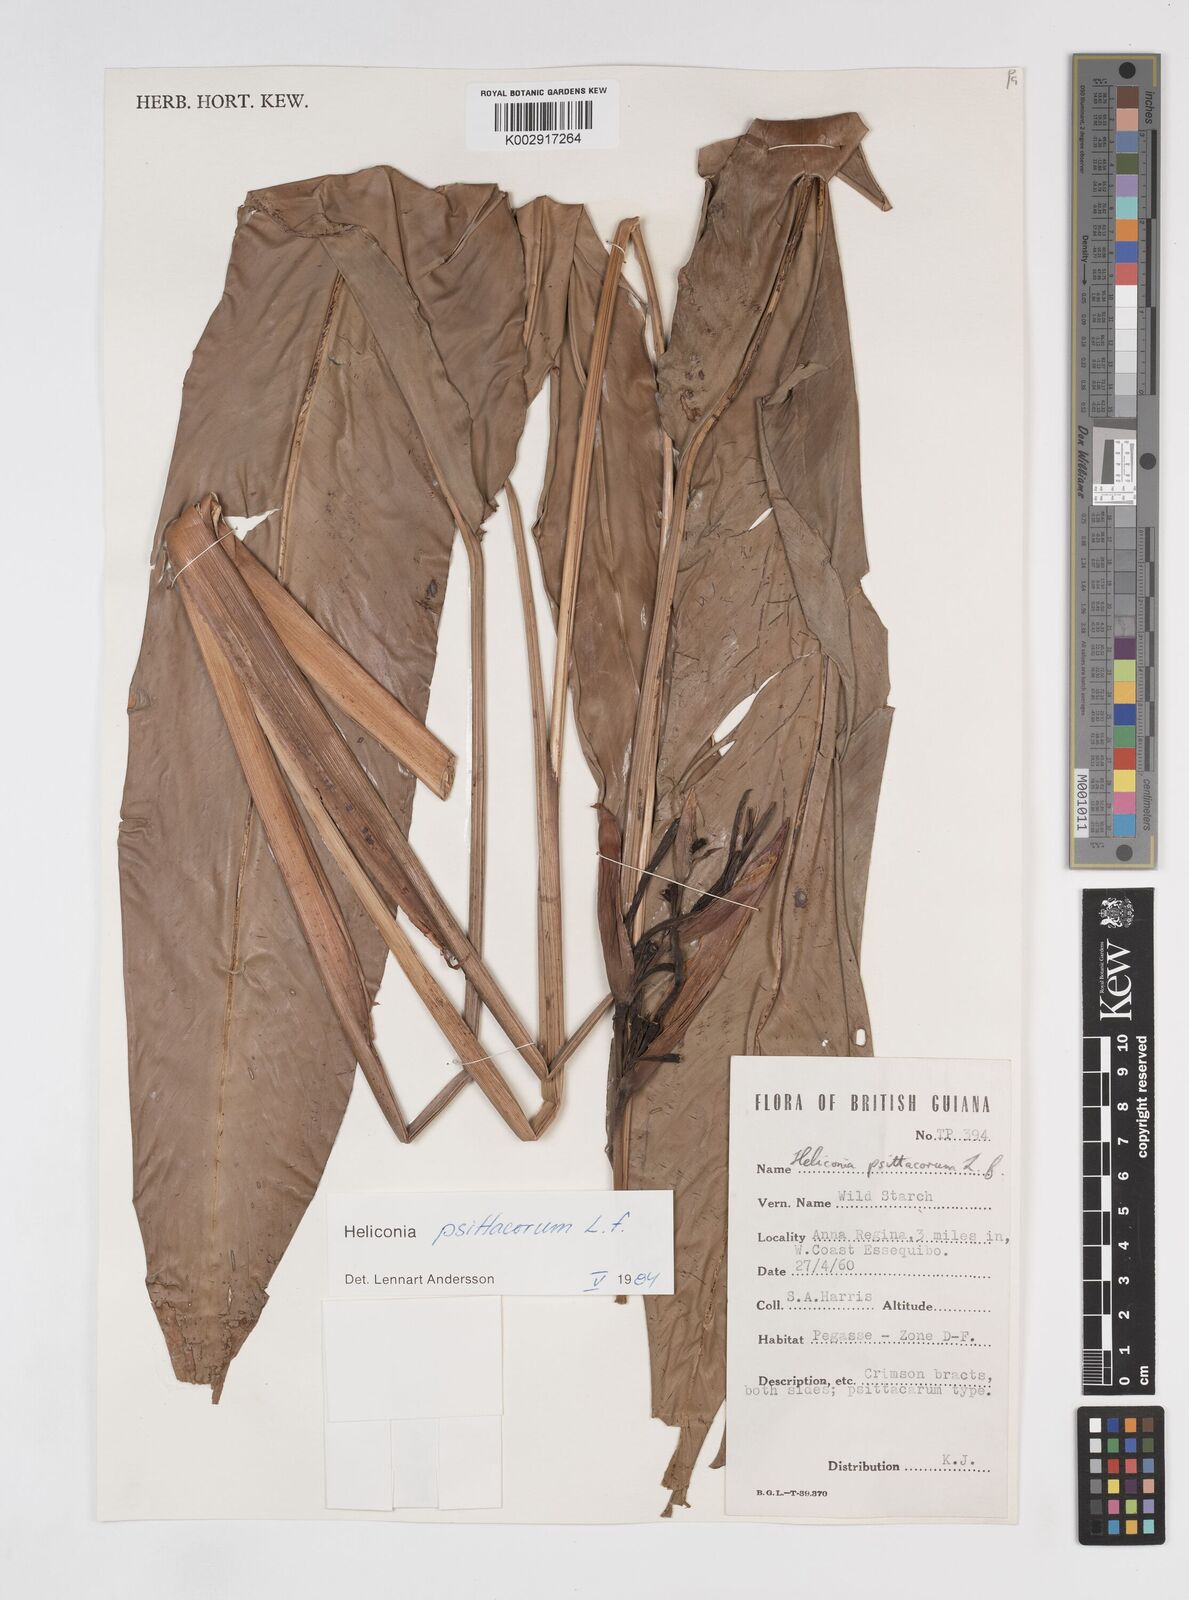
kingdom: Plantae
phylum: Tracheophyta
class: Liliopsida
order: Zingiberales
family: Heliconiaceae
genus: Heliconia
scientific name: Heliconia psittacorum
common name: Parrot's-flower
